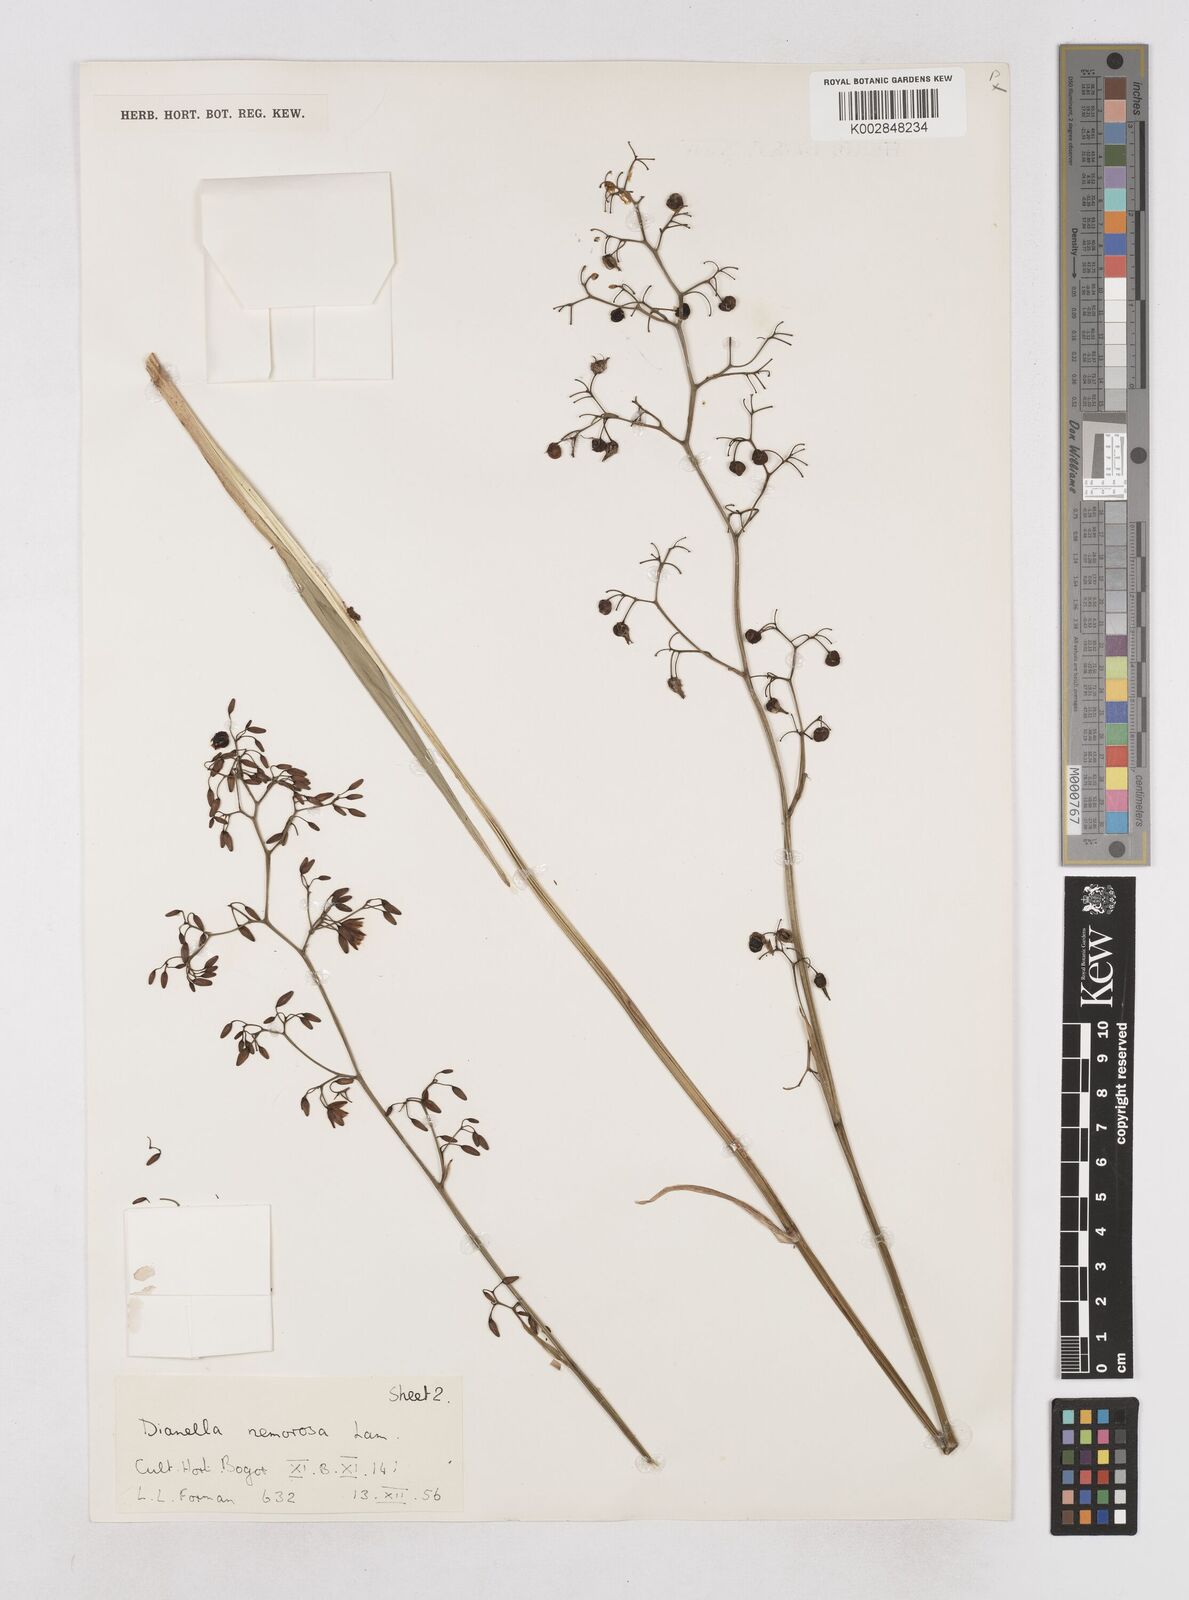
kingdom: Plantae
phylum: Tracheophyta
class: Liliopsida
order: Asparagales
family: Asphodelaceae
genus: Dianella
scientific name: Dianella ensifolia
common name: New zealand lilyplant
